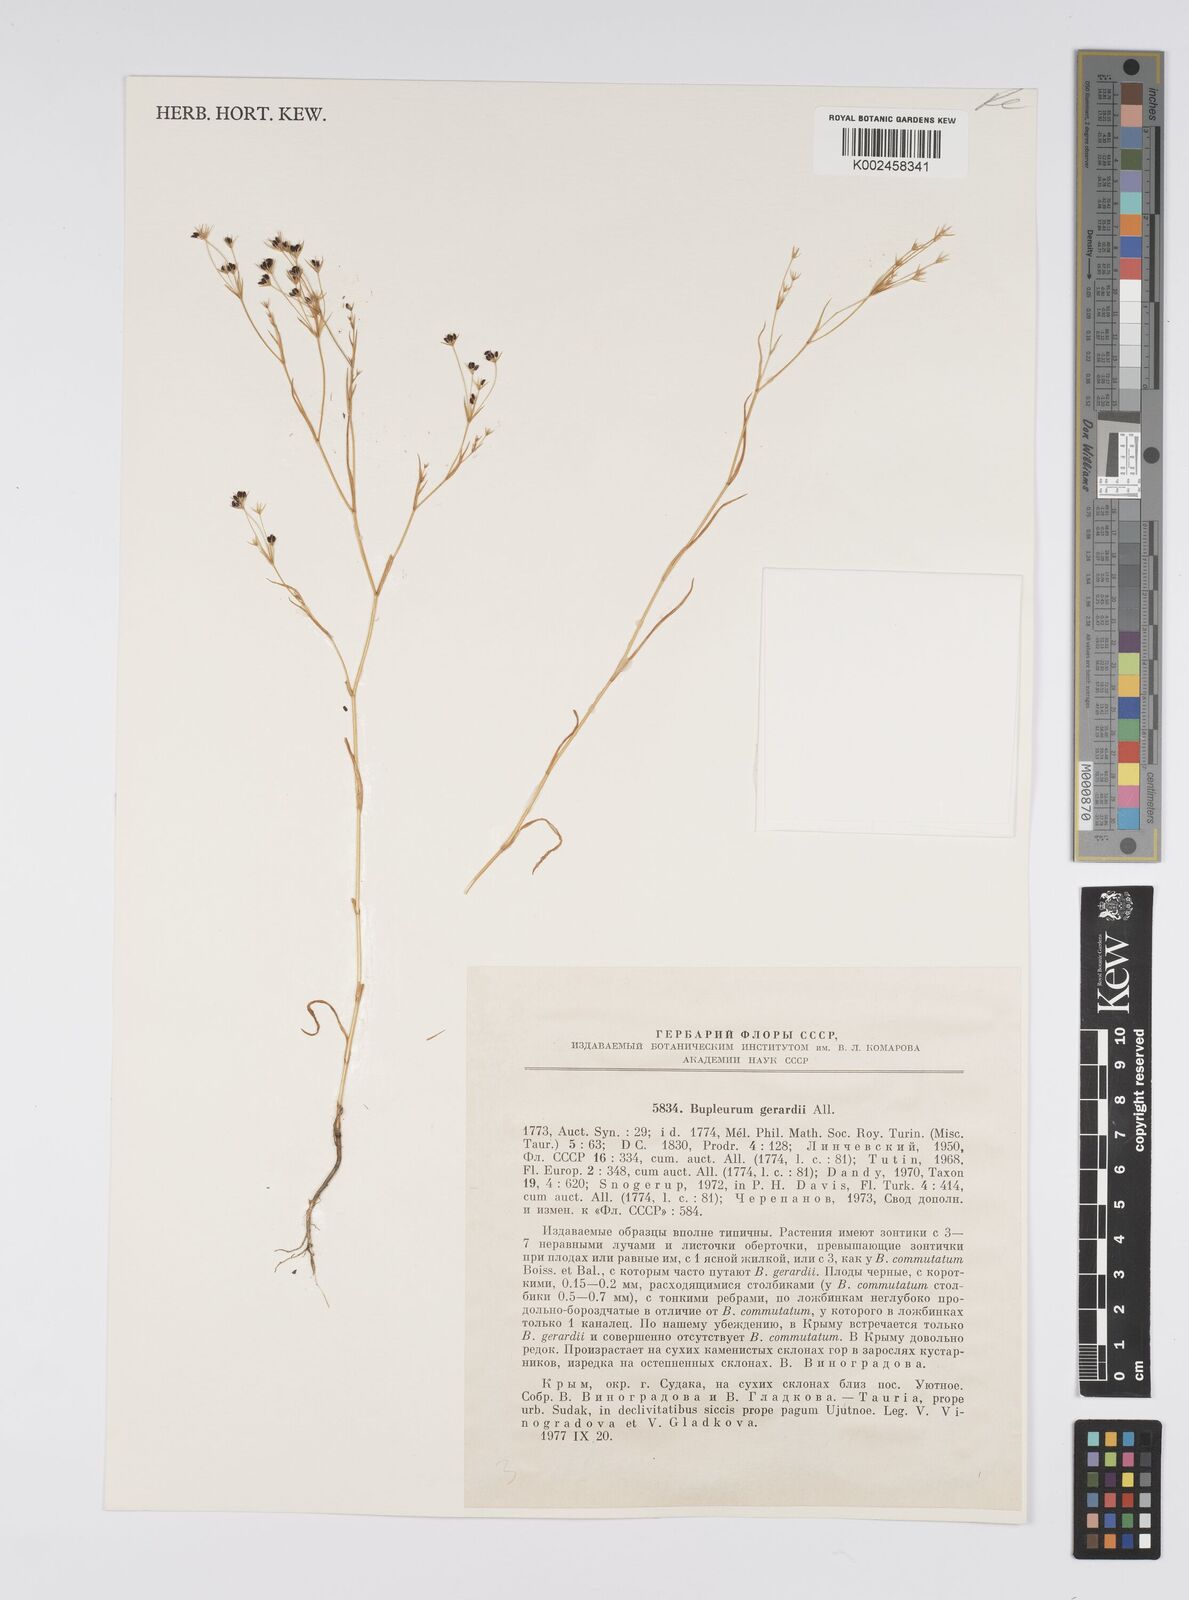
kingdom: Plantae
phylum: Tracheophyta
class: Magnoliopsida
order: Apiales
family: Apiaceae
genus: Bupleurum
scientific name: Bupleurum gerardi
